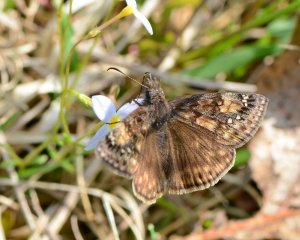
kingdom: Animalia
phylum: Arthropoda
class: Insecta
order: Lepidoptera
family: Hesperiidae
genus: Gesta
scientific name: Gesta
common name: Juvenal's Duskywing
